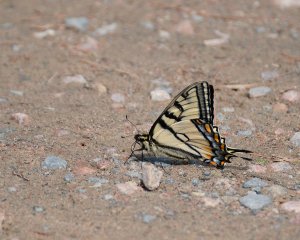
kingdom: Animalia
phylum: Arthropoda
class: Insecta
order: Lepidoptera
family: Papilionidae
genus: Pterourus
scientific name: Pterourus canadensis
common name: Canadian Tiger Swallowtail
